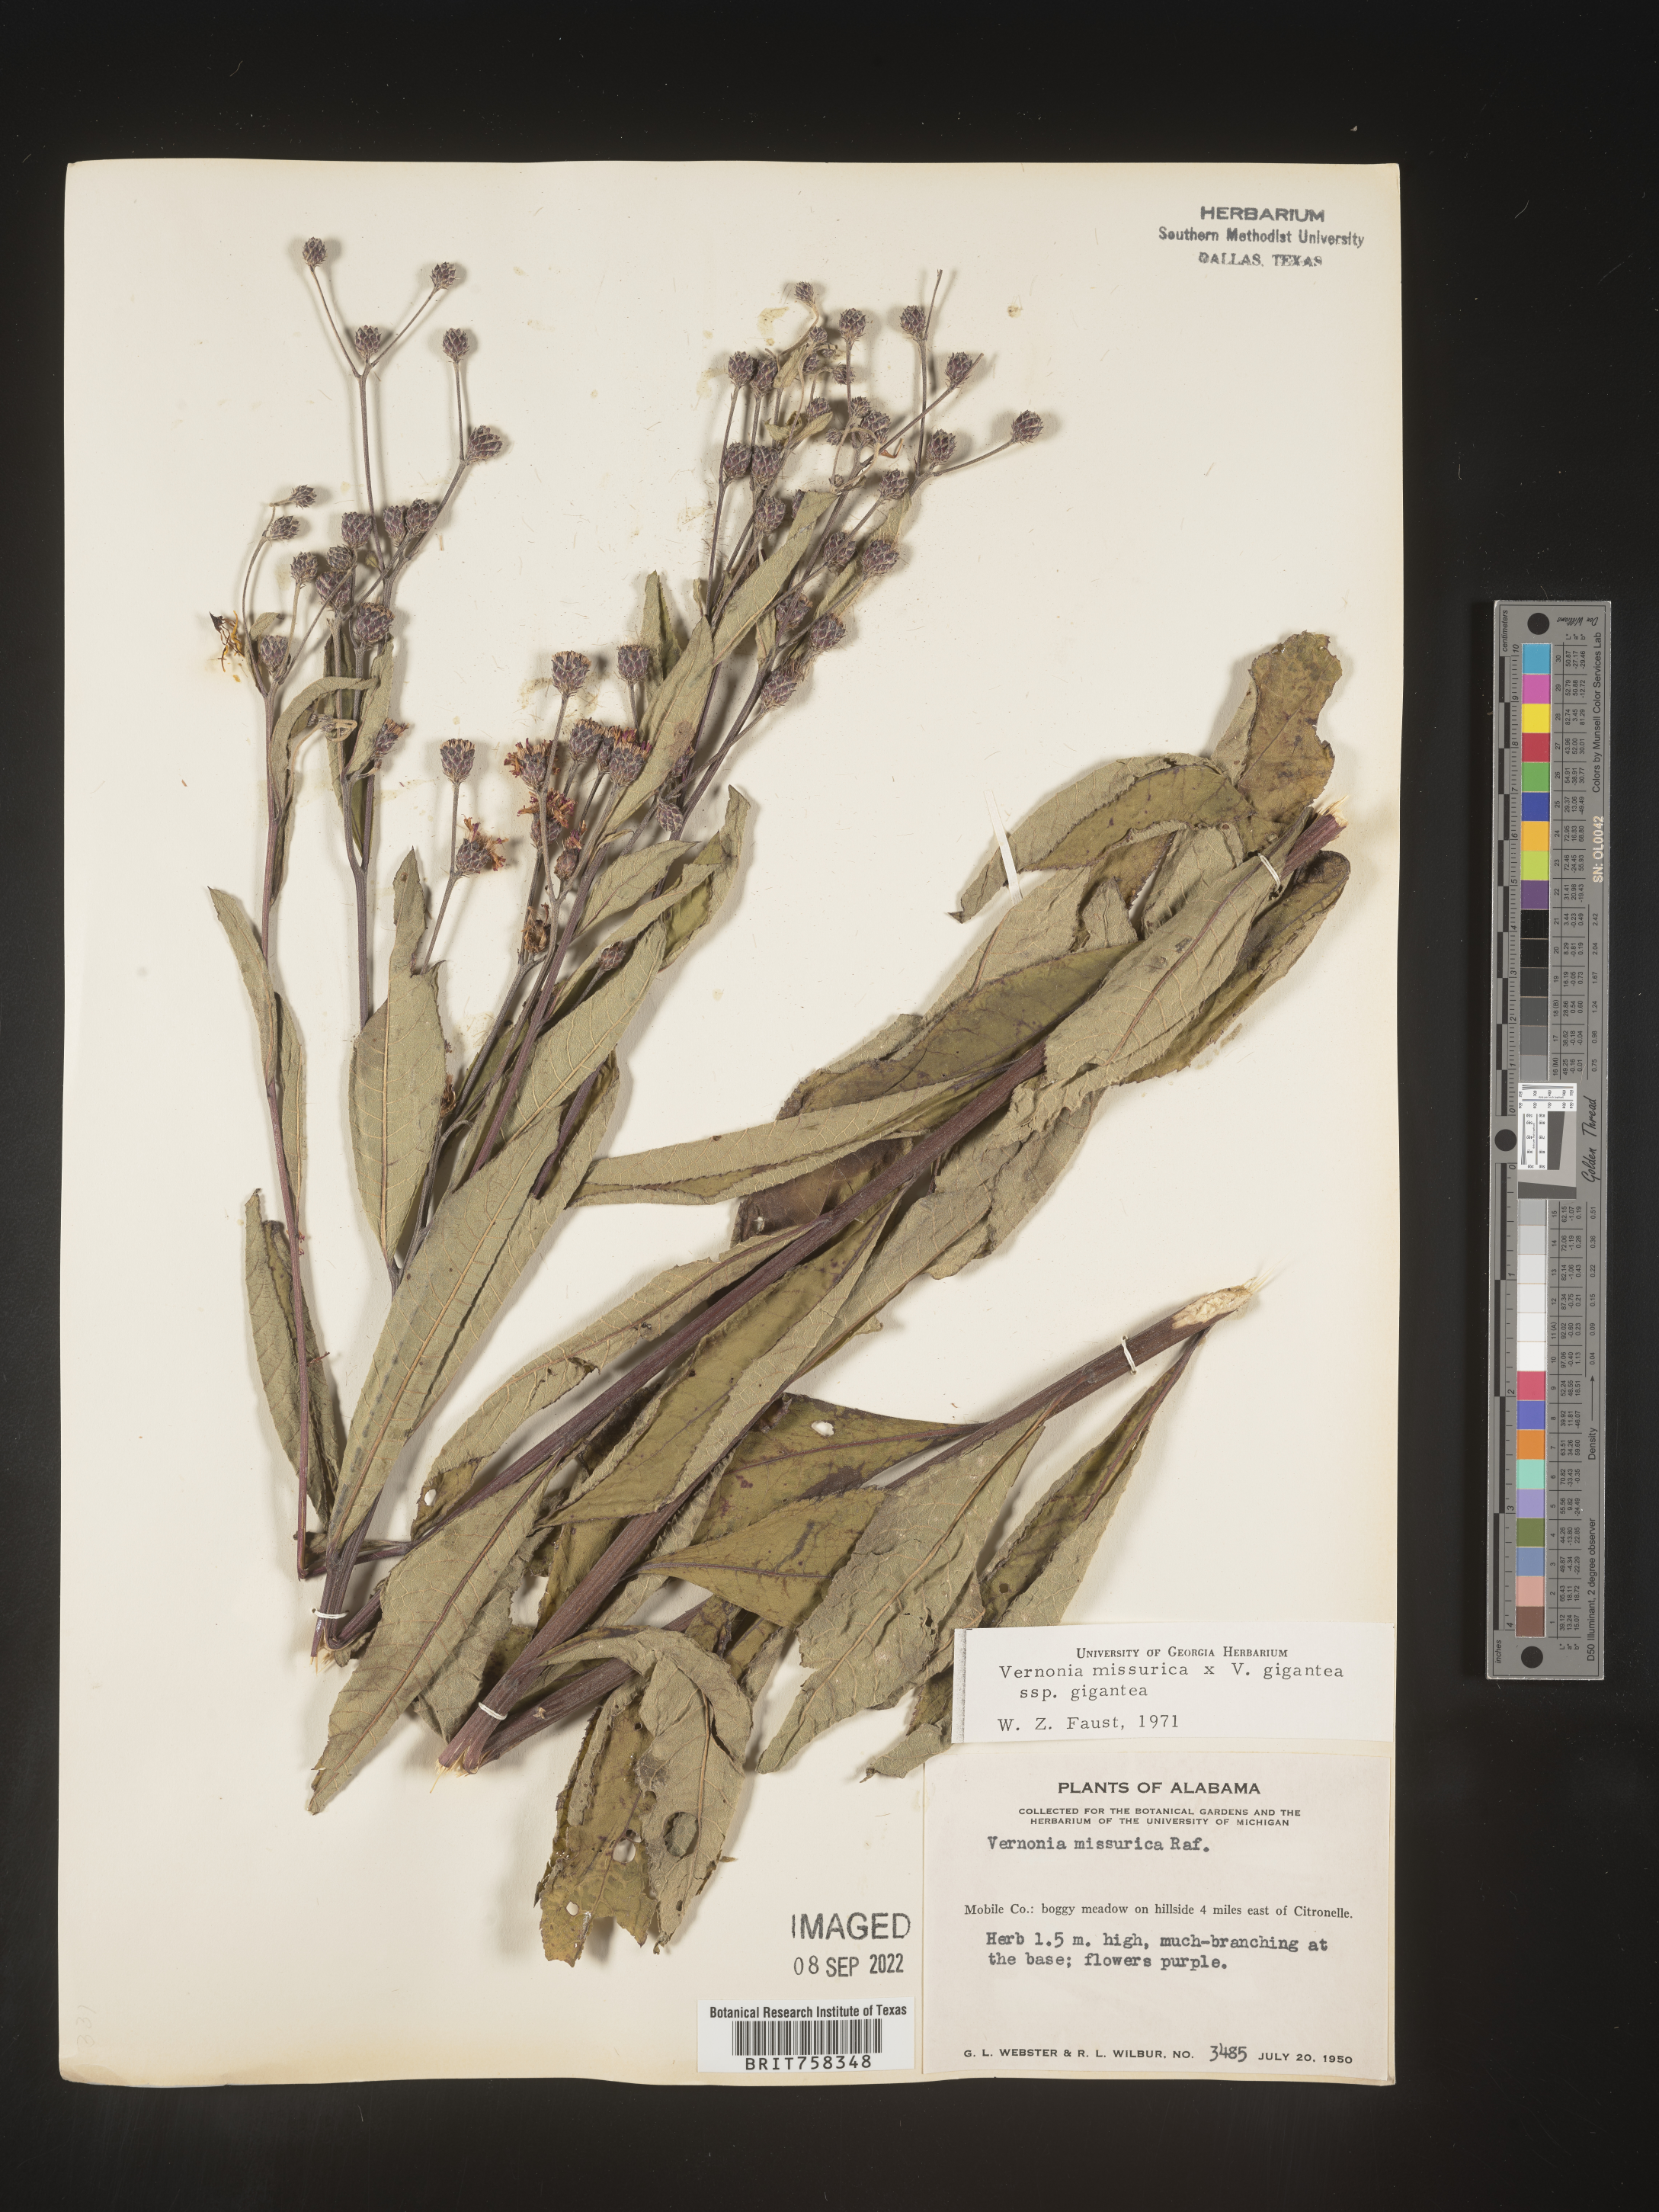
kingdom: Plantae
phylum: Tracheophyta
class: Magnoliopsida
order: Asterales
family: Asteraceae
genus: Vernonia
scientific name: Vernonia missurica
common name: Missouri ironweed
